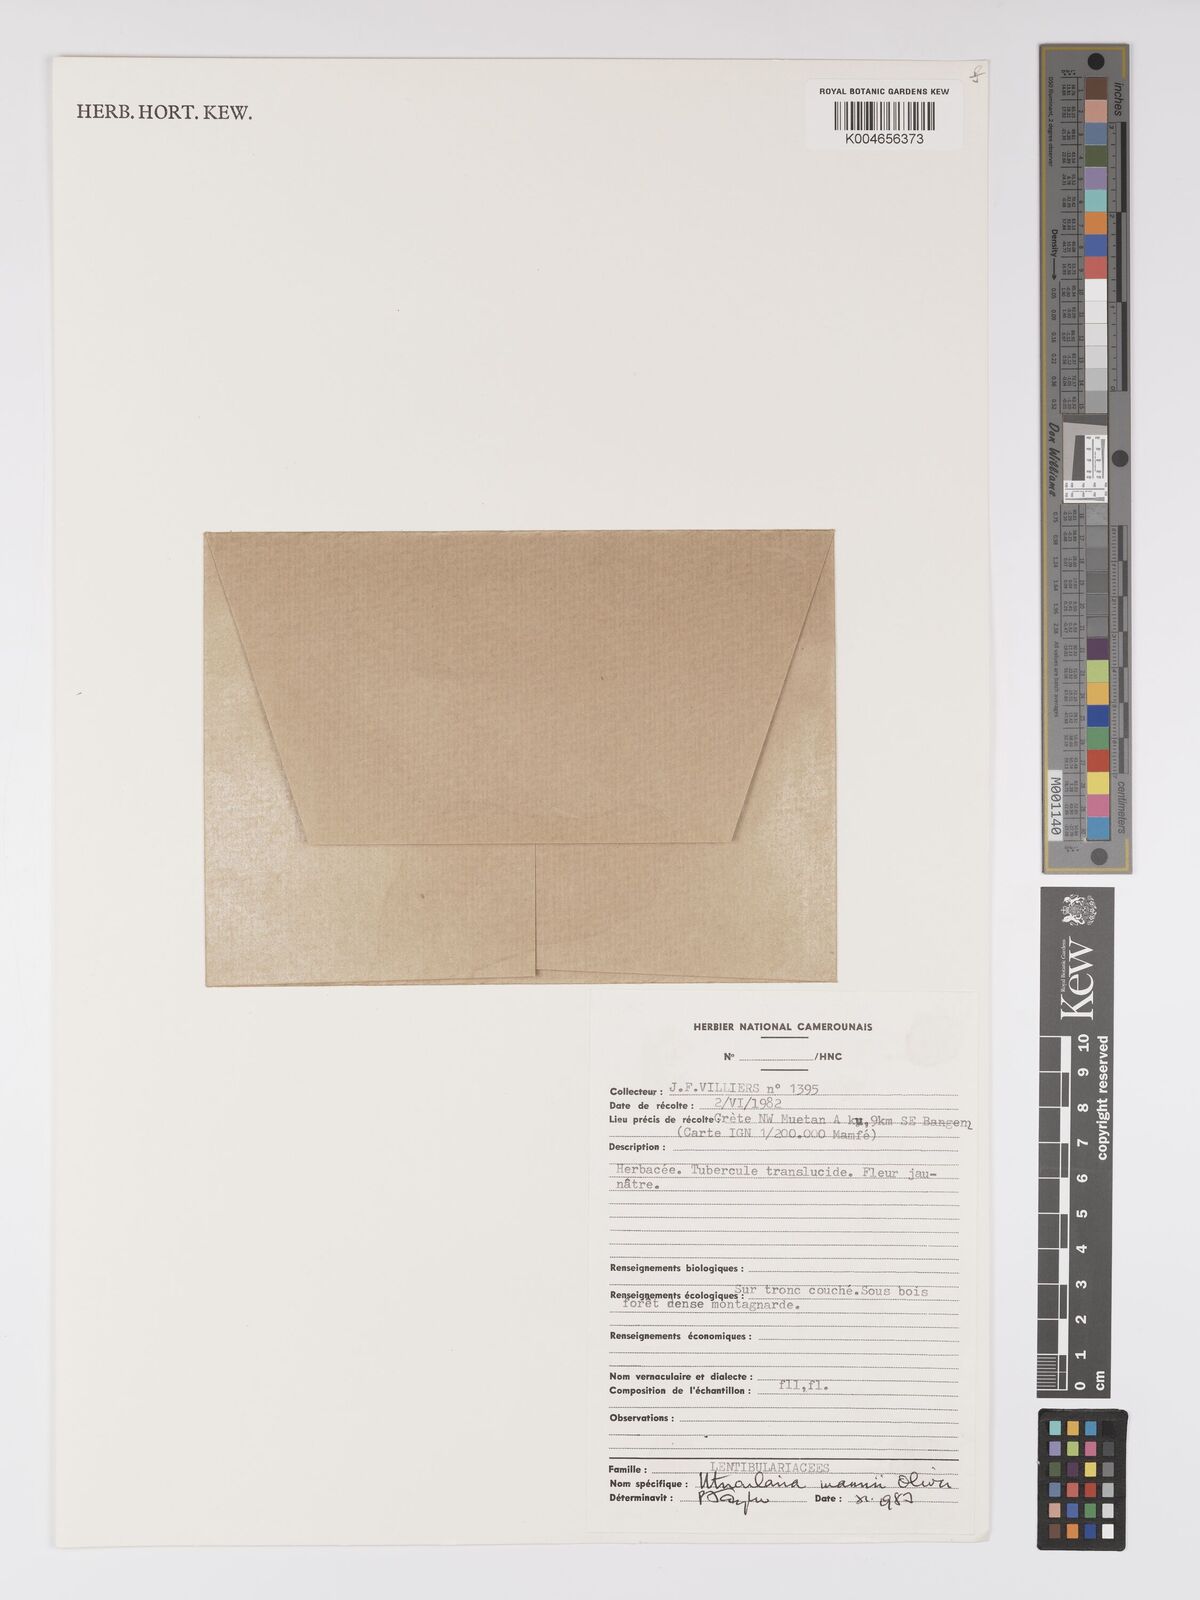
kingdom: Plantae
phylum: Tracheophyta
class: Magnoliopsida
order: Lamiales
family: Lentibulariaceae
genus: Utricularia
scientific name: Utricularia mannii
